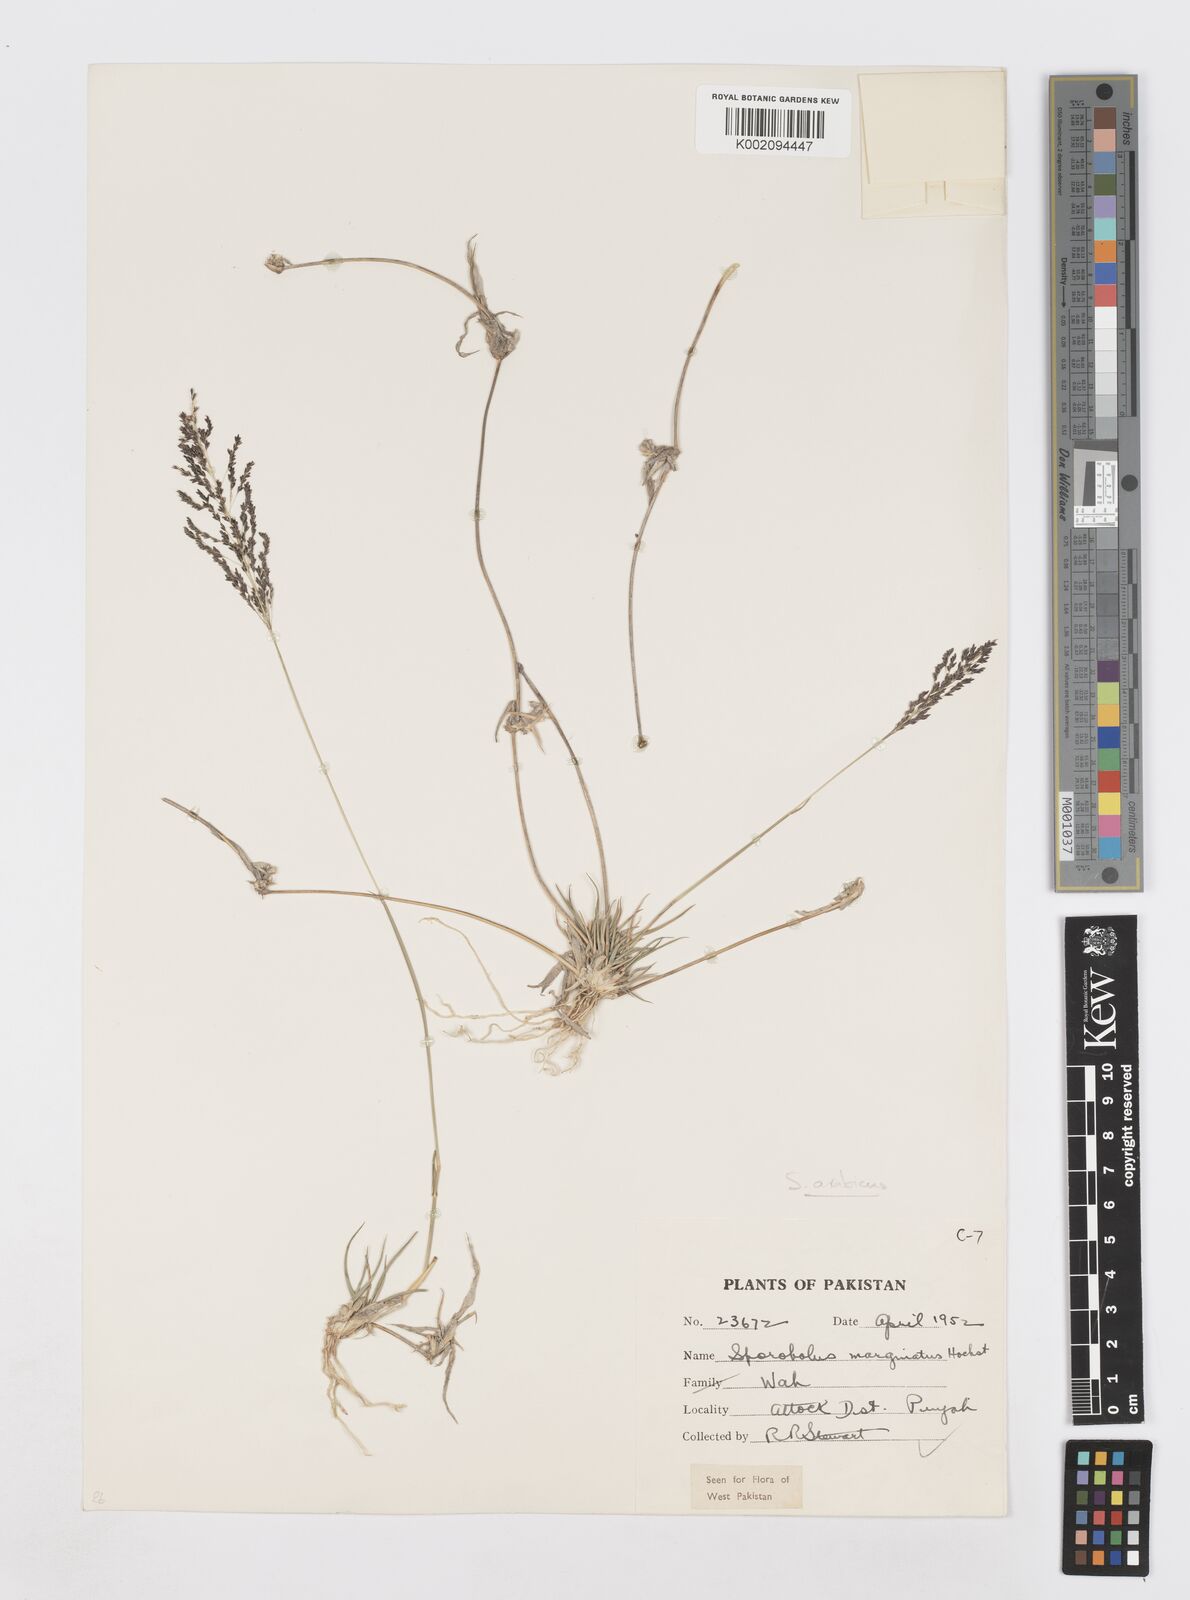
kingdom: Plantae
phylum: Tracheophyta
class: Liliopsida
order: Poales
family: Poaceae
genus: Sporobolus
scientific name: Sporobolus ioclados
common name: Pan dropseed
